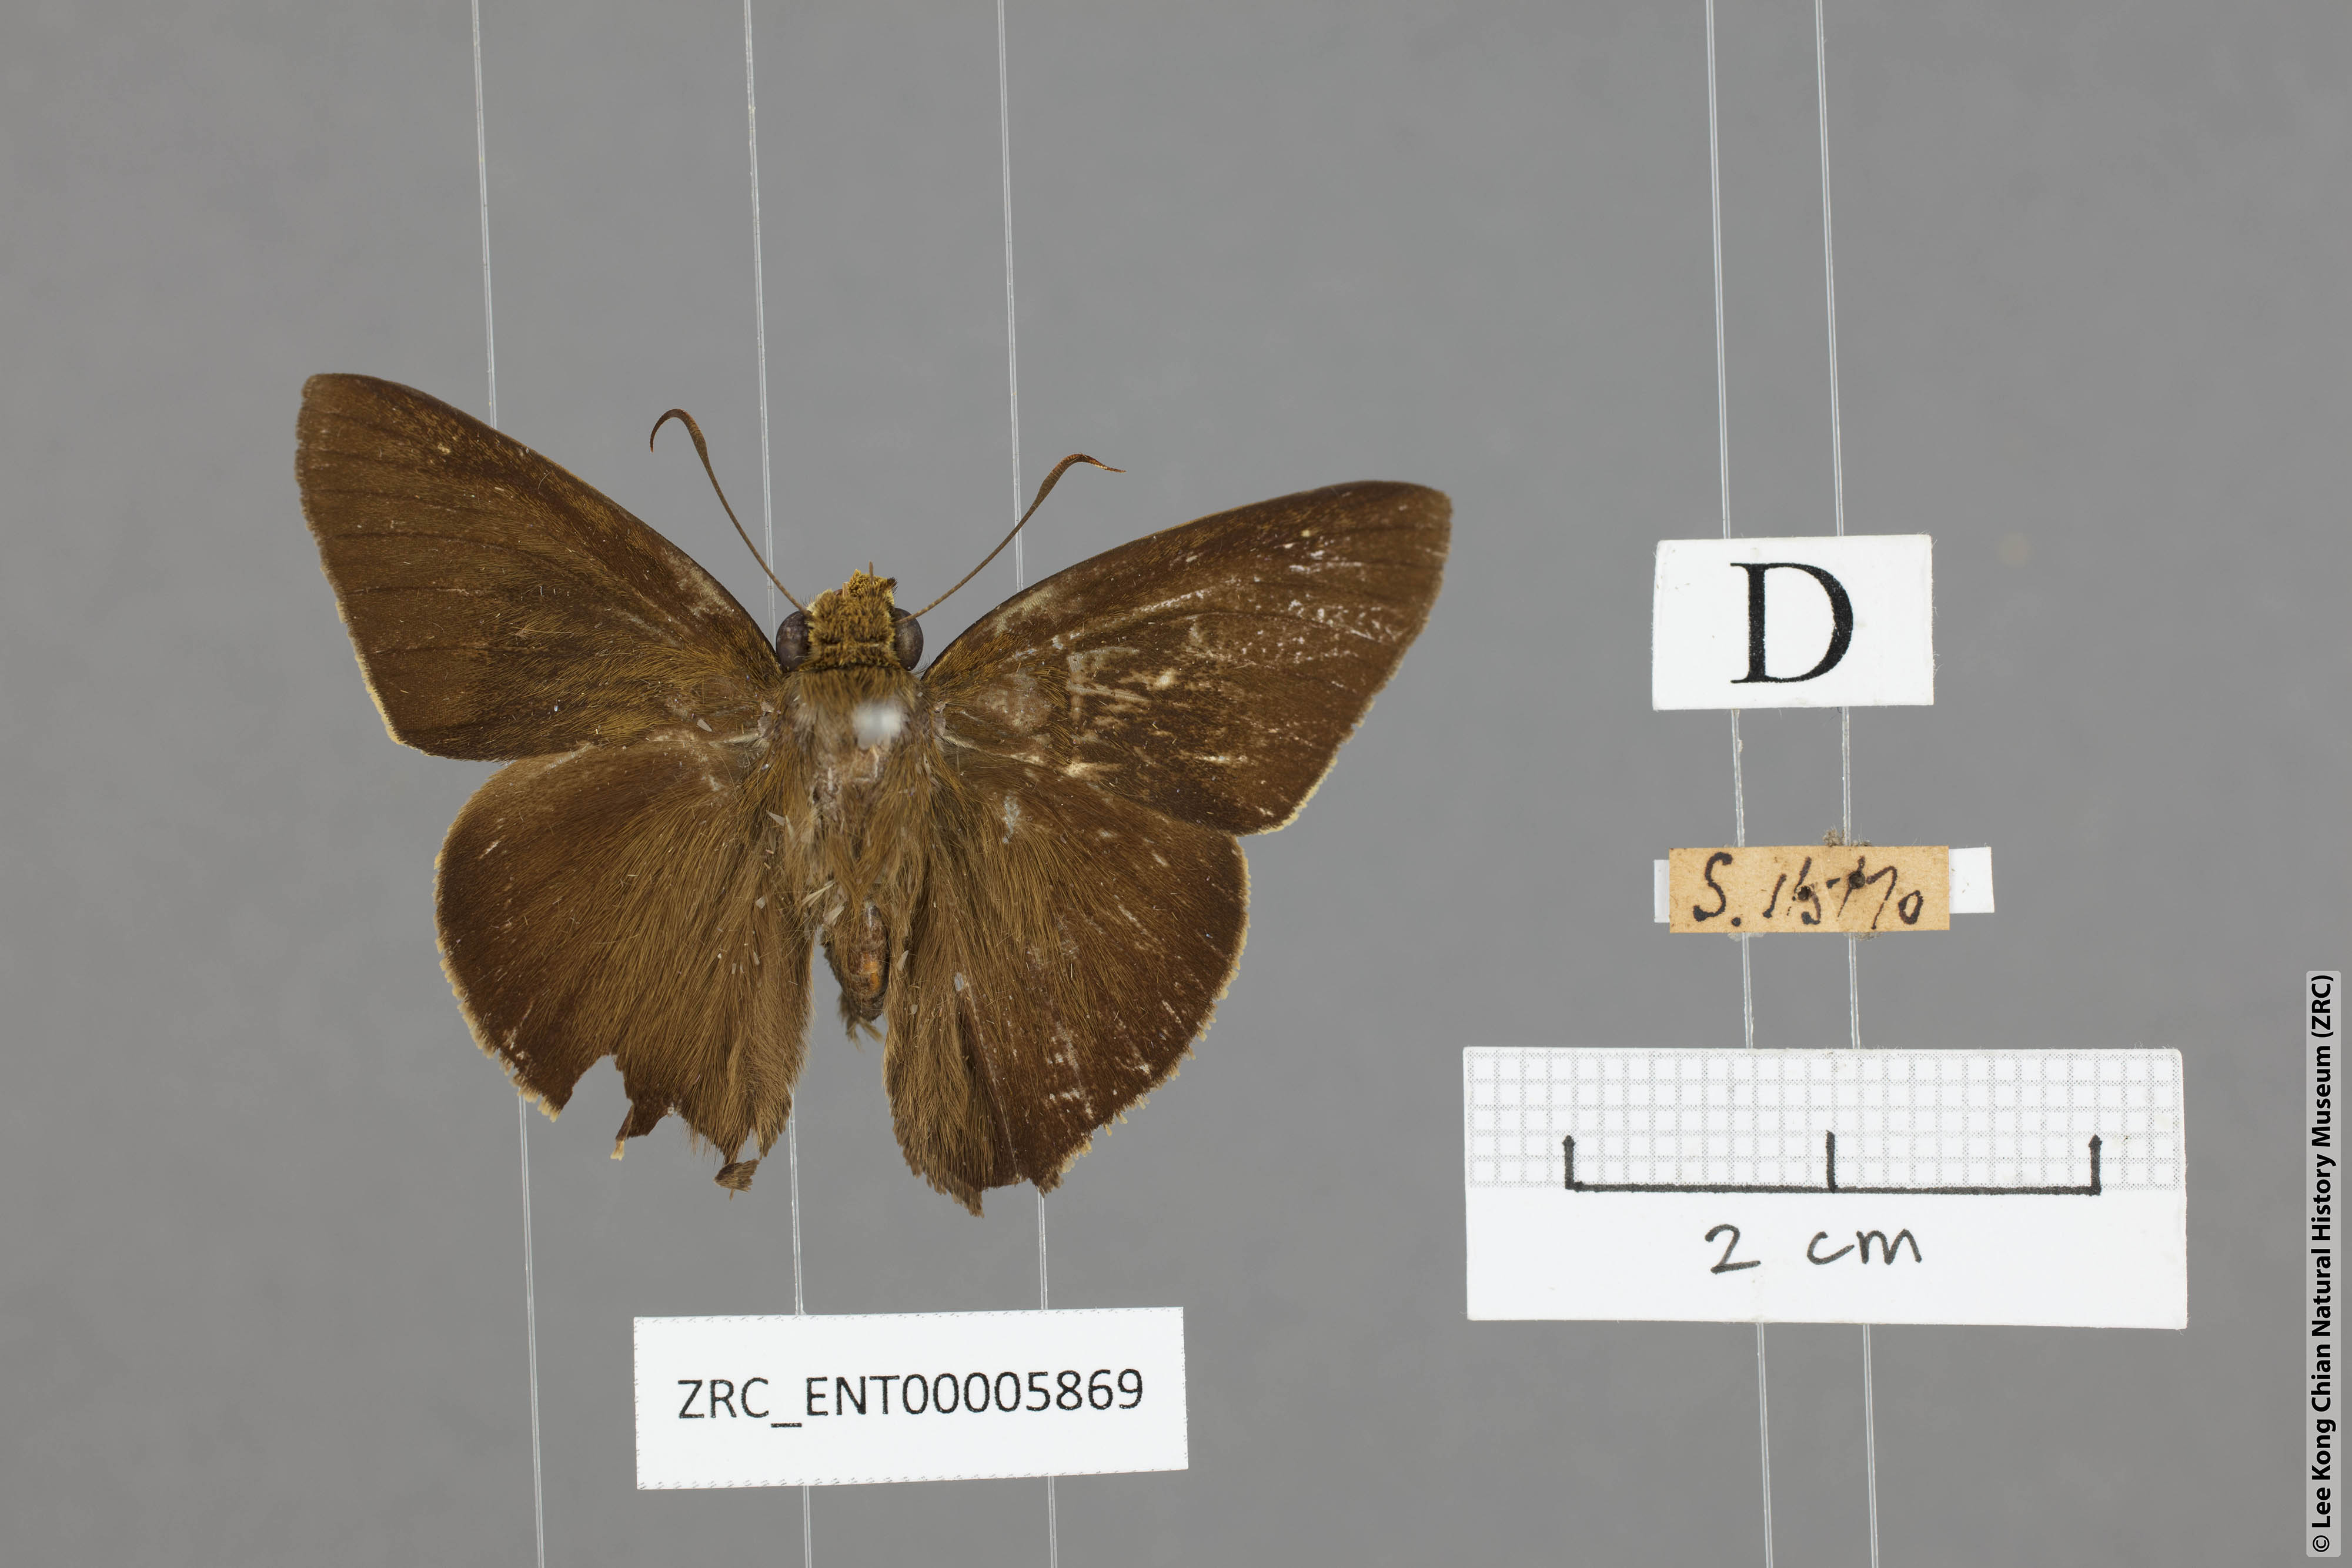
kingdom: Animalia
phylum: Arthropoda
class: Insecta
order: Lepidoptera
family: Hesperiidae
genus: Hasora
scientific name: Hasora badra
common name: Common awl
